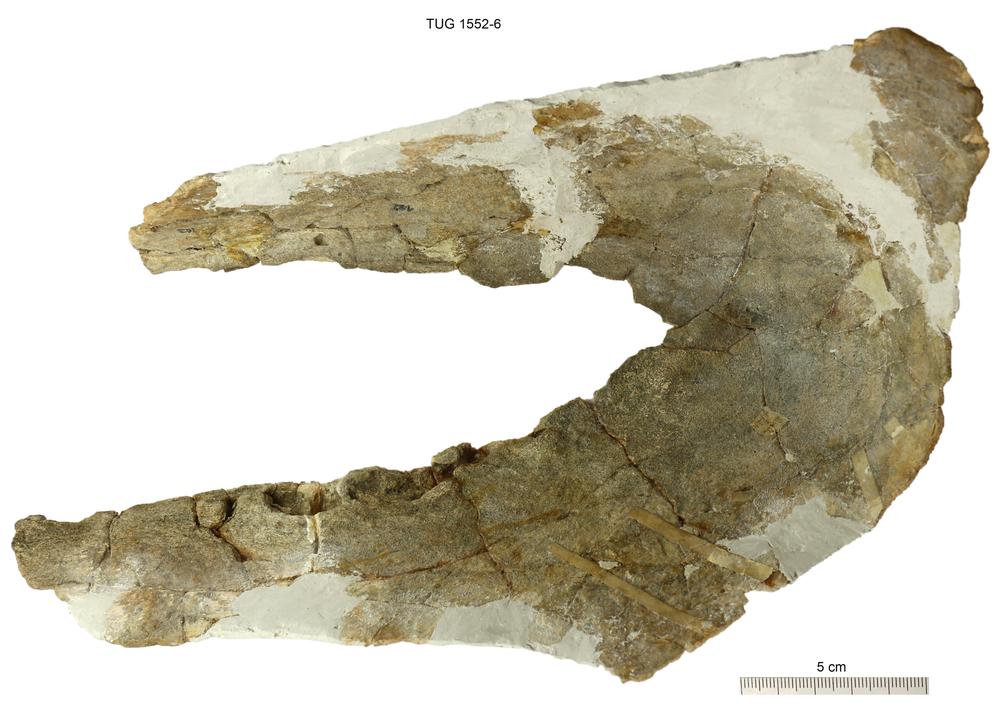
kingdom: Animalia
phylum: Chordata
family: Psammosteidae
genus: Pycnosteus
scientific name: Pycnosteus
